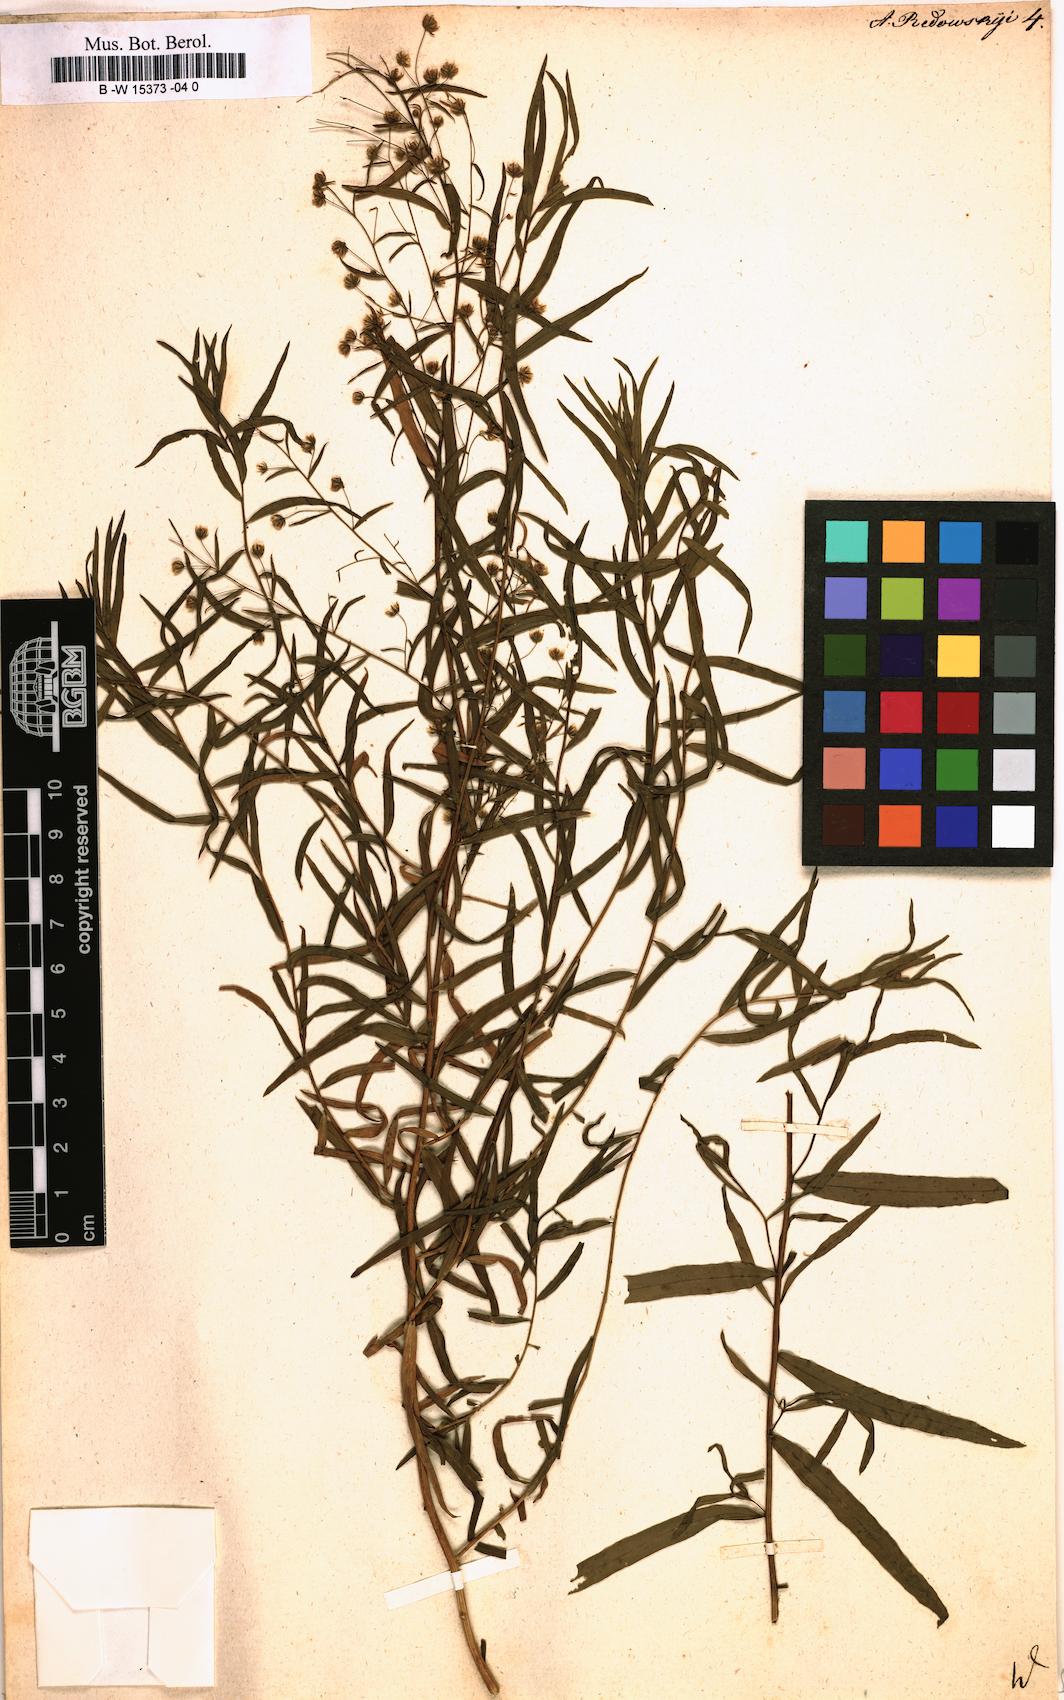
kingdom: Plantae
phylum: Tracheophyta
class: Magnoliopsida
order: Asterales
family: Asteraceae
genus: Artemisia
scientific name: Artemisia dracunculus
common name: Tarragon
